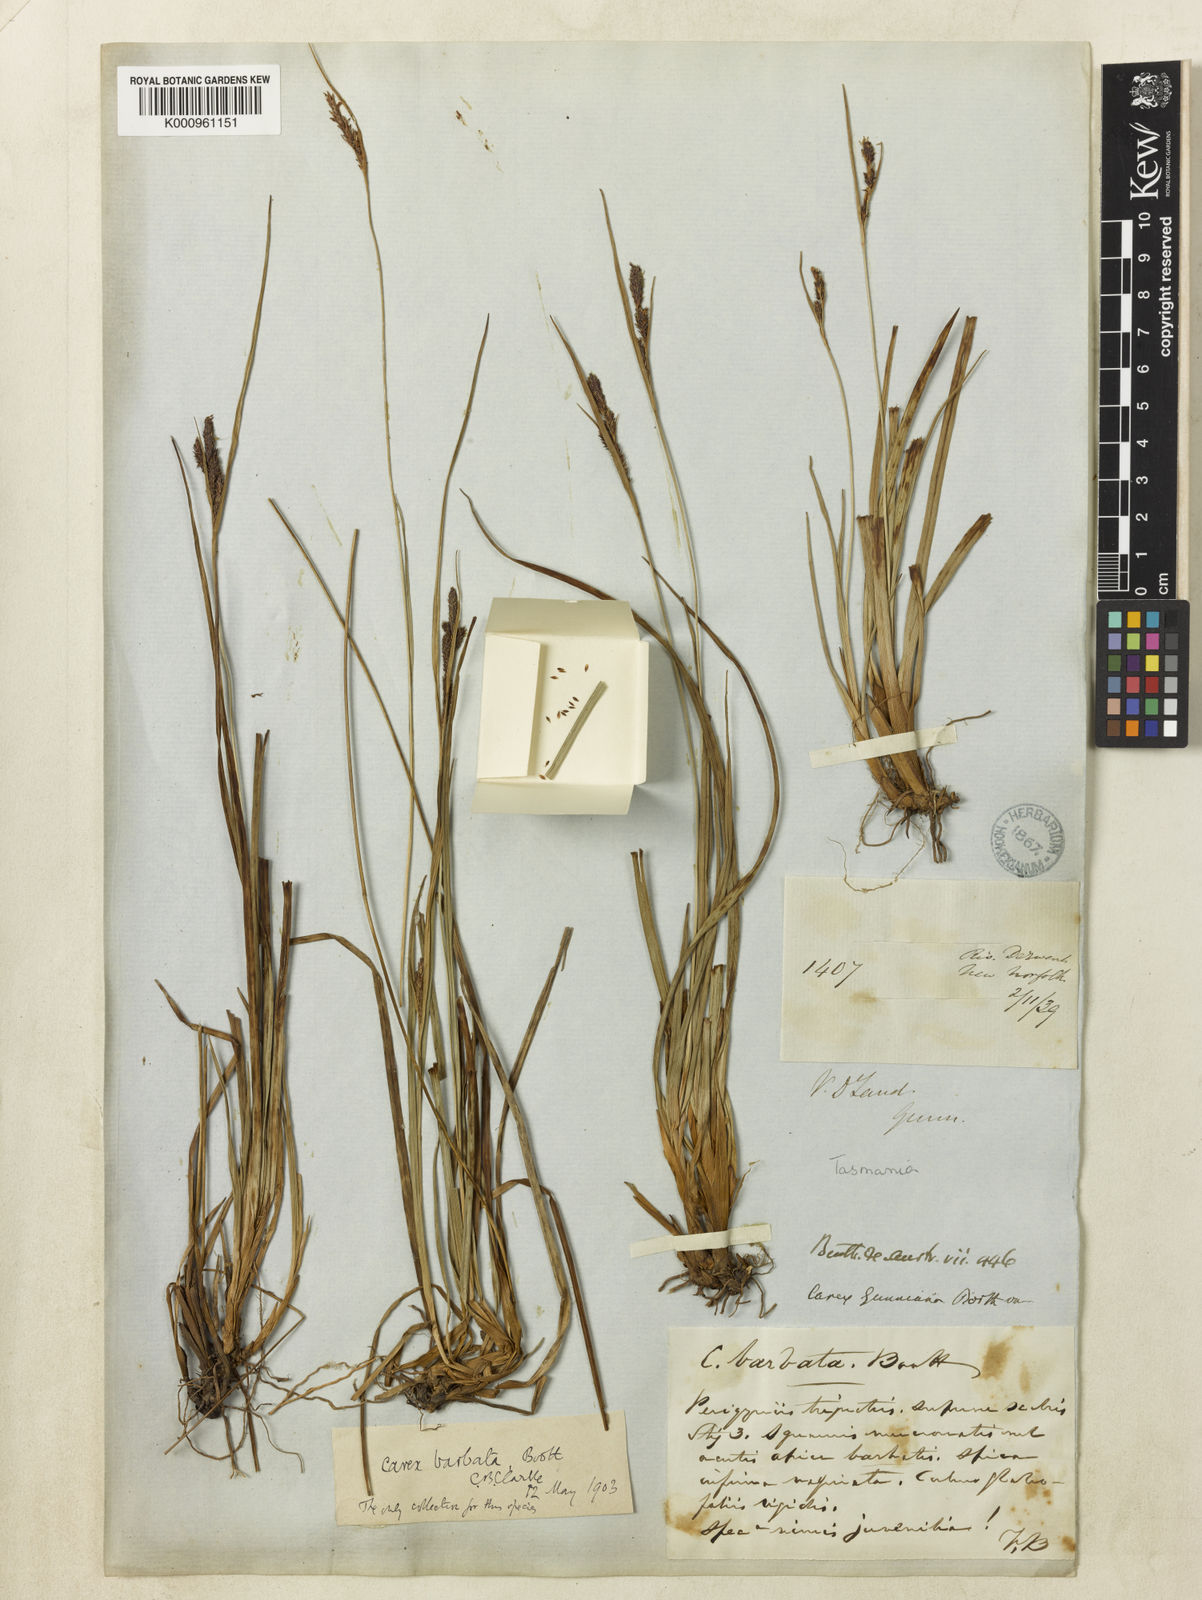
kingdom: Plantae
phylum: Tracheophyta
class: Liliopsida
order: Poales
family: Cyperaceae
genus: Carex
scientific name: Carex barbata
